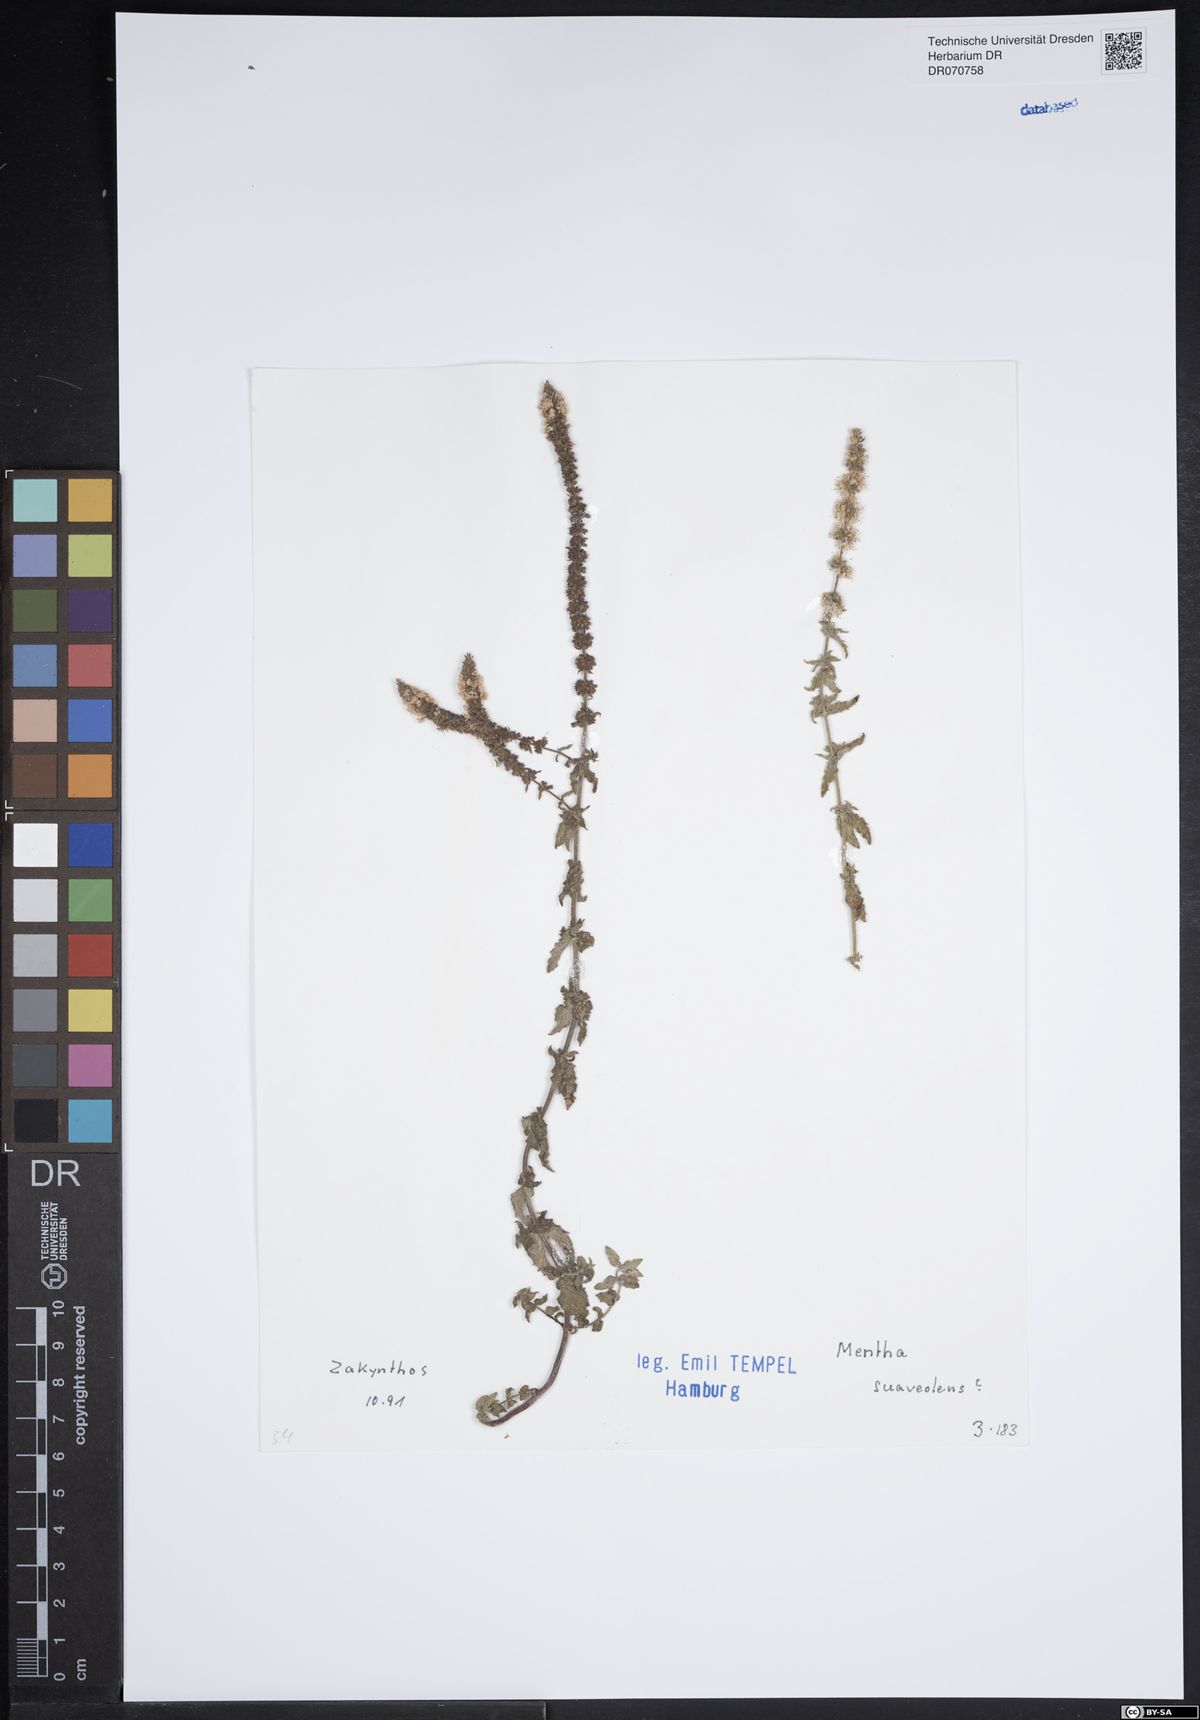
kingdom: Plantae
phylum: Tracheophyta
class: Magnoliopsida
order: Lamiales
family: Lamiaceae
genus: Mentha
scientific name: Mentha suaveolens
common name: Apple mint
